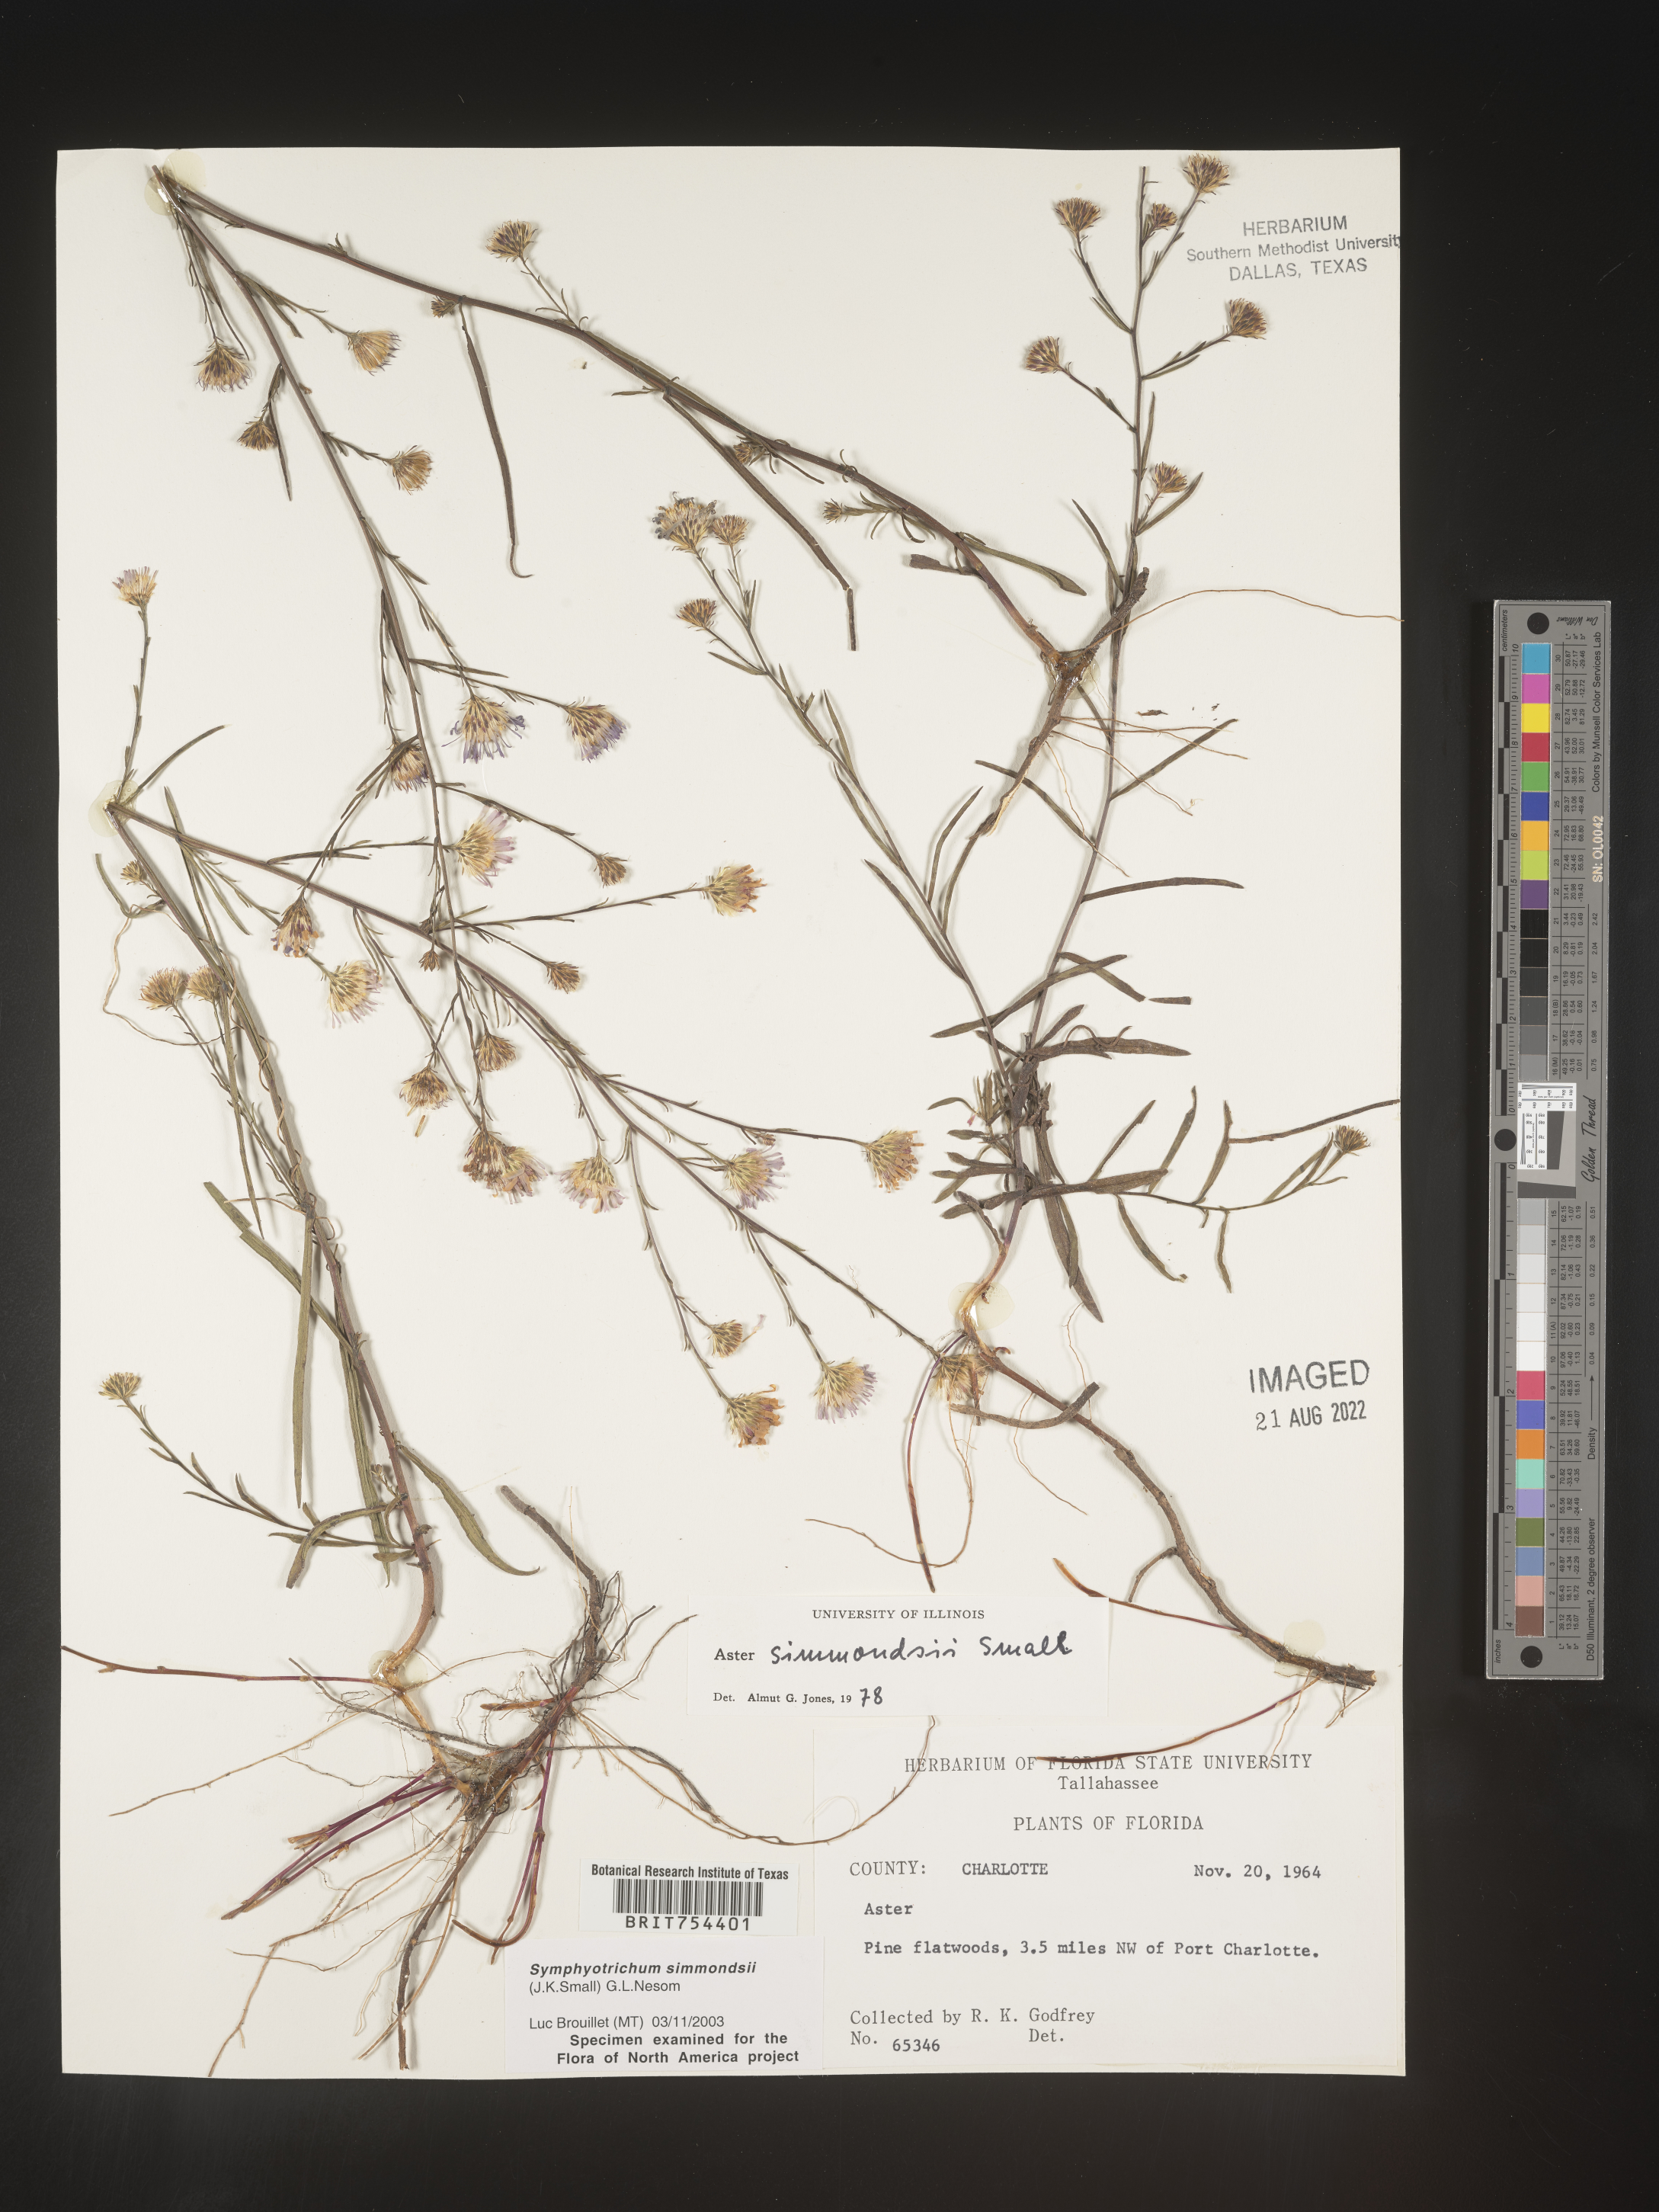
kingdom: Plantae
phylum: Tracheophyta
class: Magnoliopsida
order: Asterales
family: Asteraceae
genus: Symphyotrichum
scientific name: Symphyotrichum simmondsii
